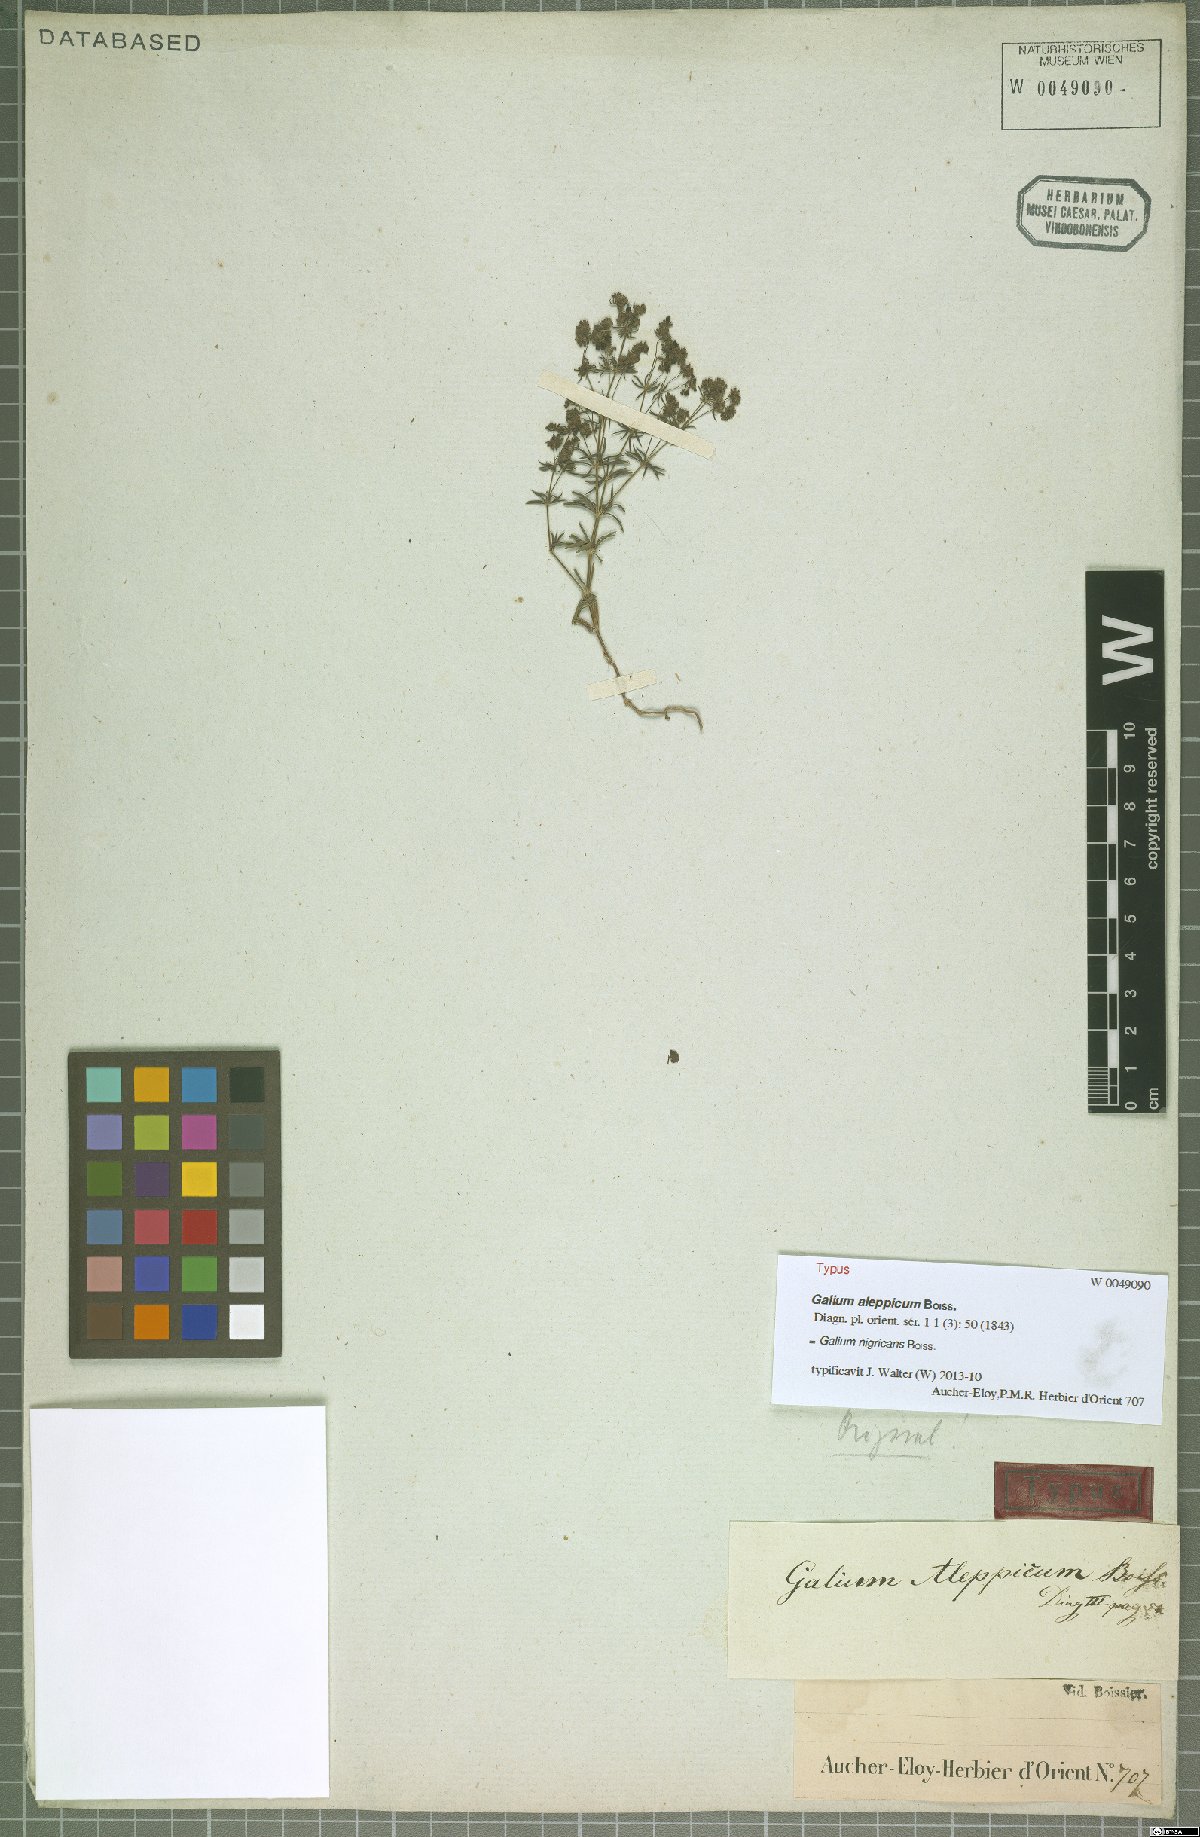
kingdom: Plantae
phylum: Tracheophyta
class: Magnoliopsida
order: Gentianales
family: Rubiaceae
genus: Galium
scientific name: Galium nigricans
